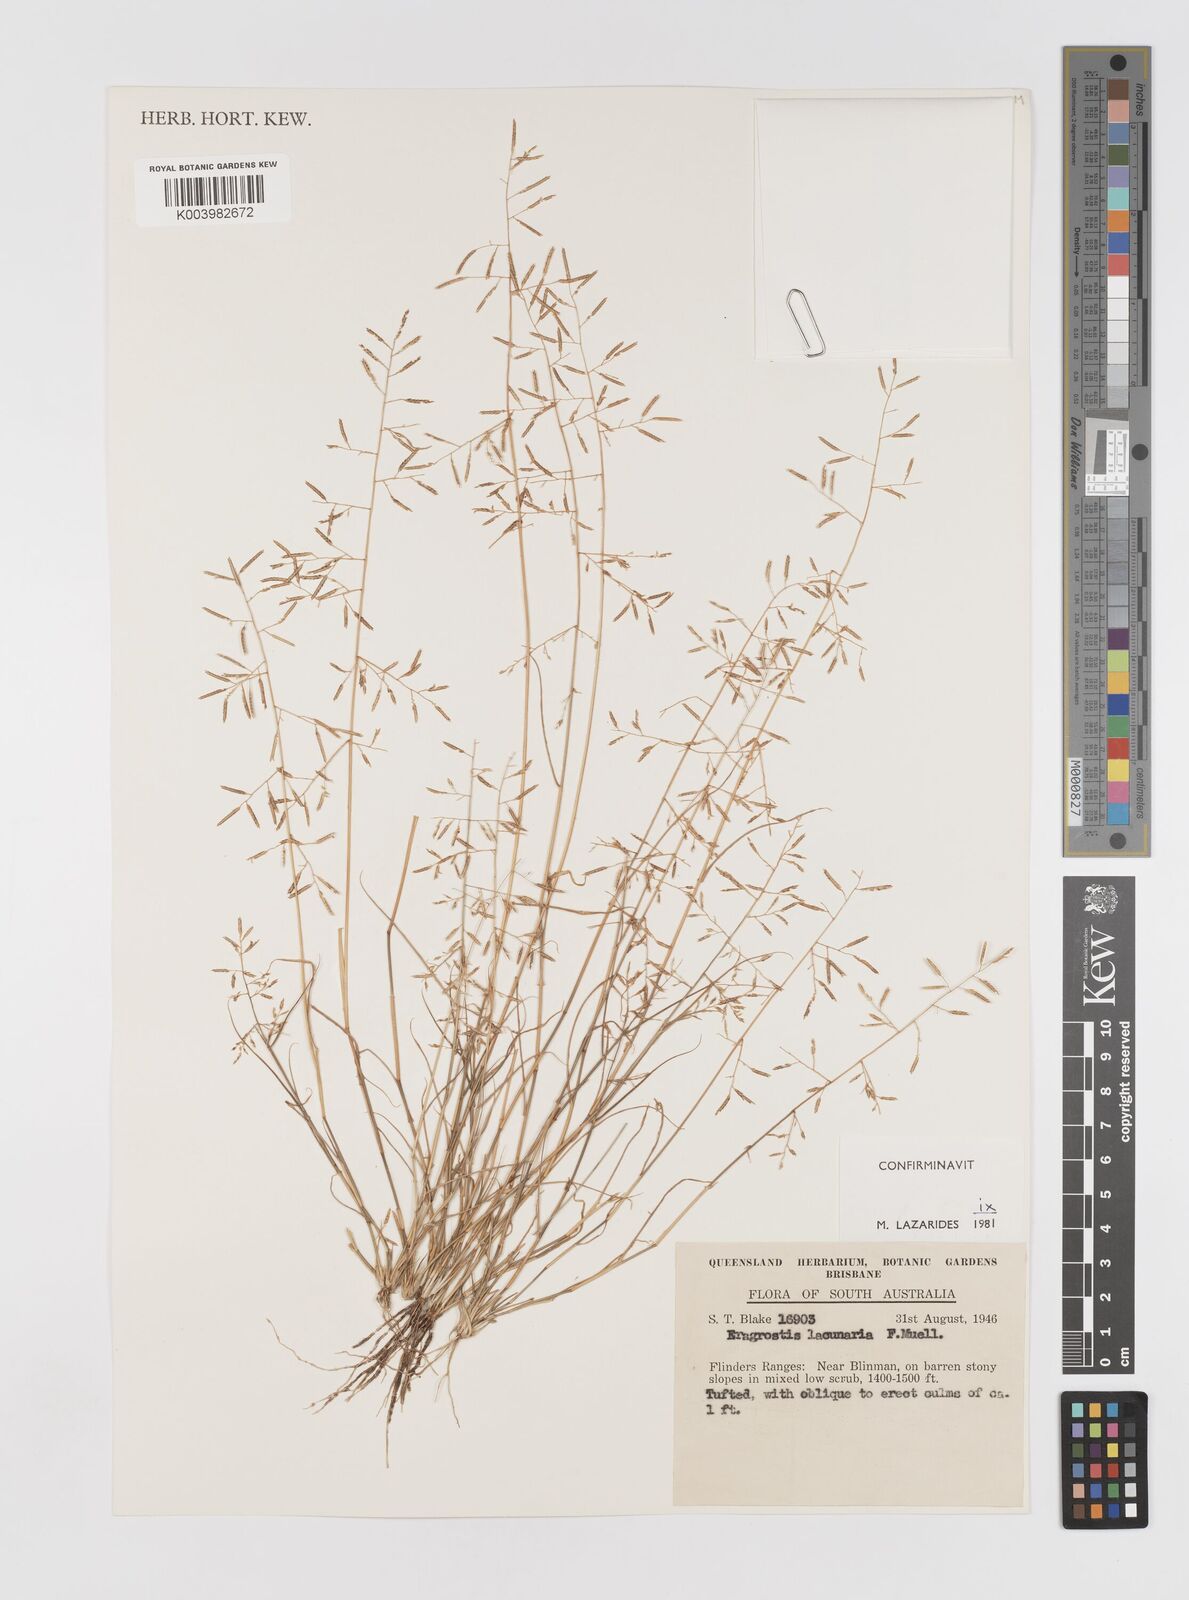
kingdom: Plantae
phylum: Tracheophyta
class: Liliopsida
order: Poales
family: Poaceae
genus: Eragrostis
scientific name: Eragrostis lacunaria
